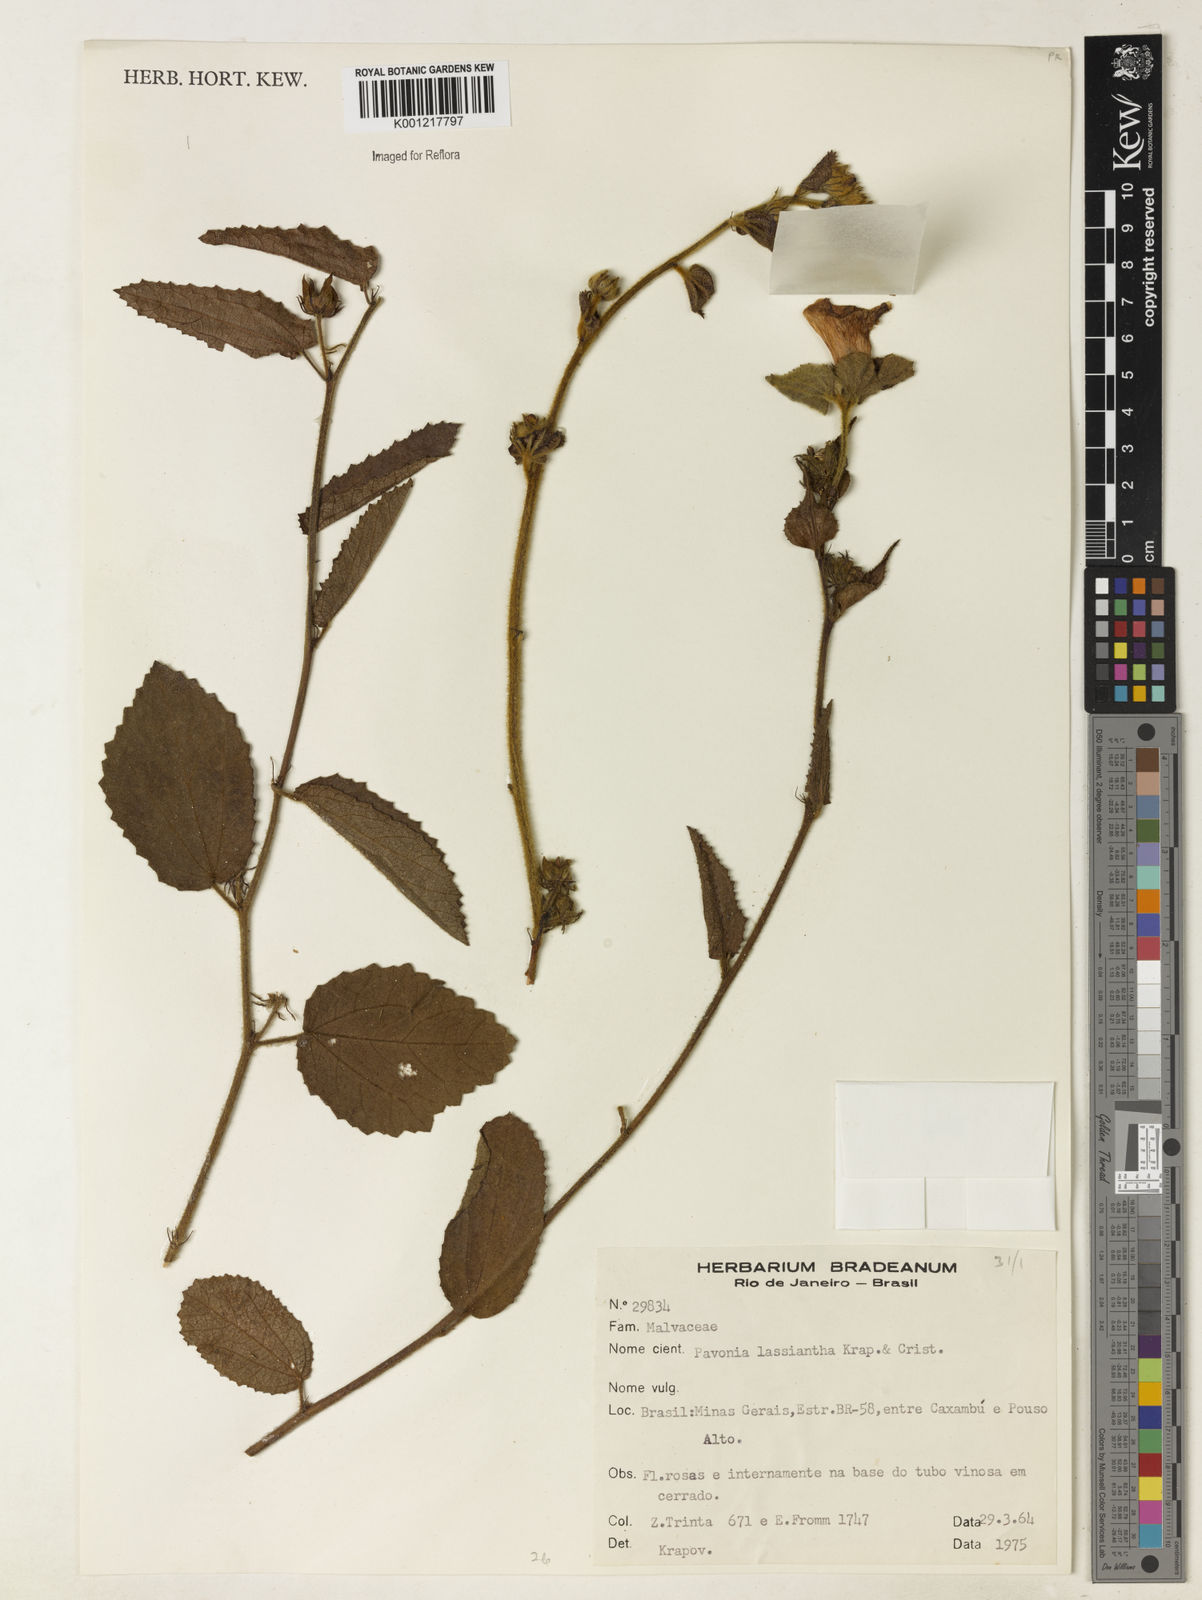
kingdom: Plantae
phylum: Tracheophyta
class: Magnoliopsida
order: Malvales
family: Malvaceae
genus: Pavonia
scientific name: Pavonia
